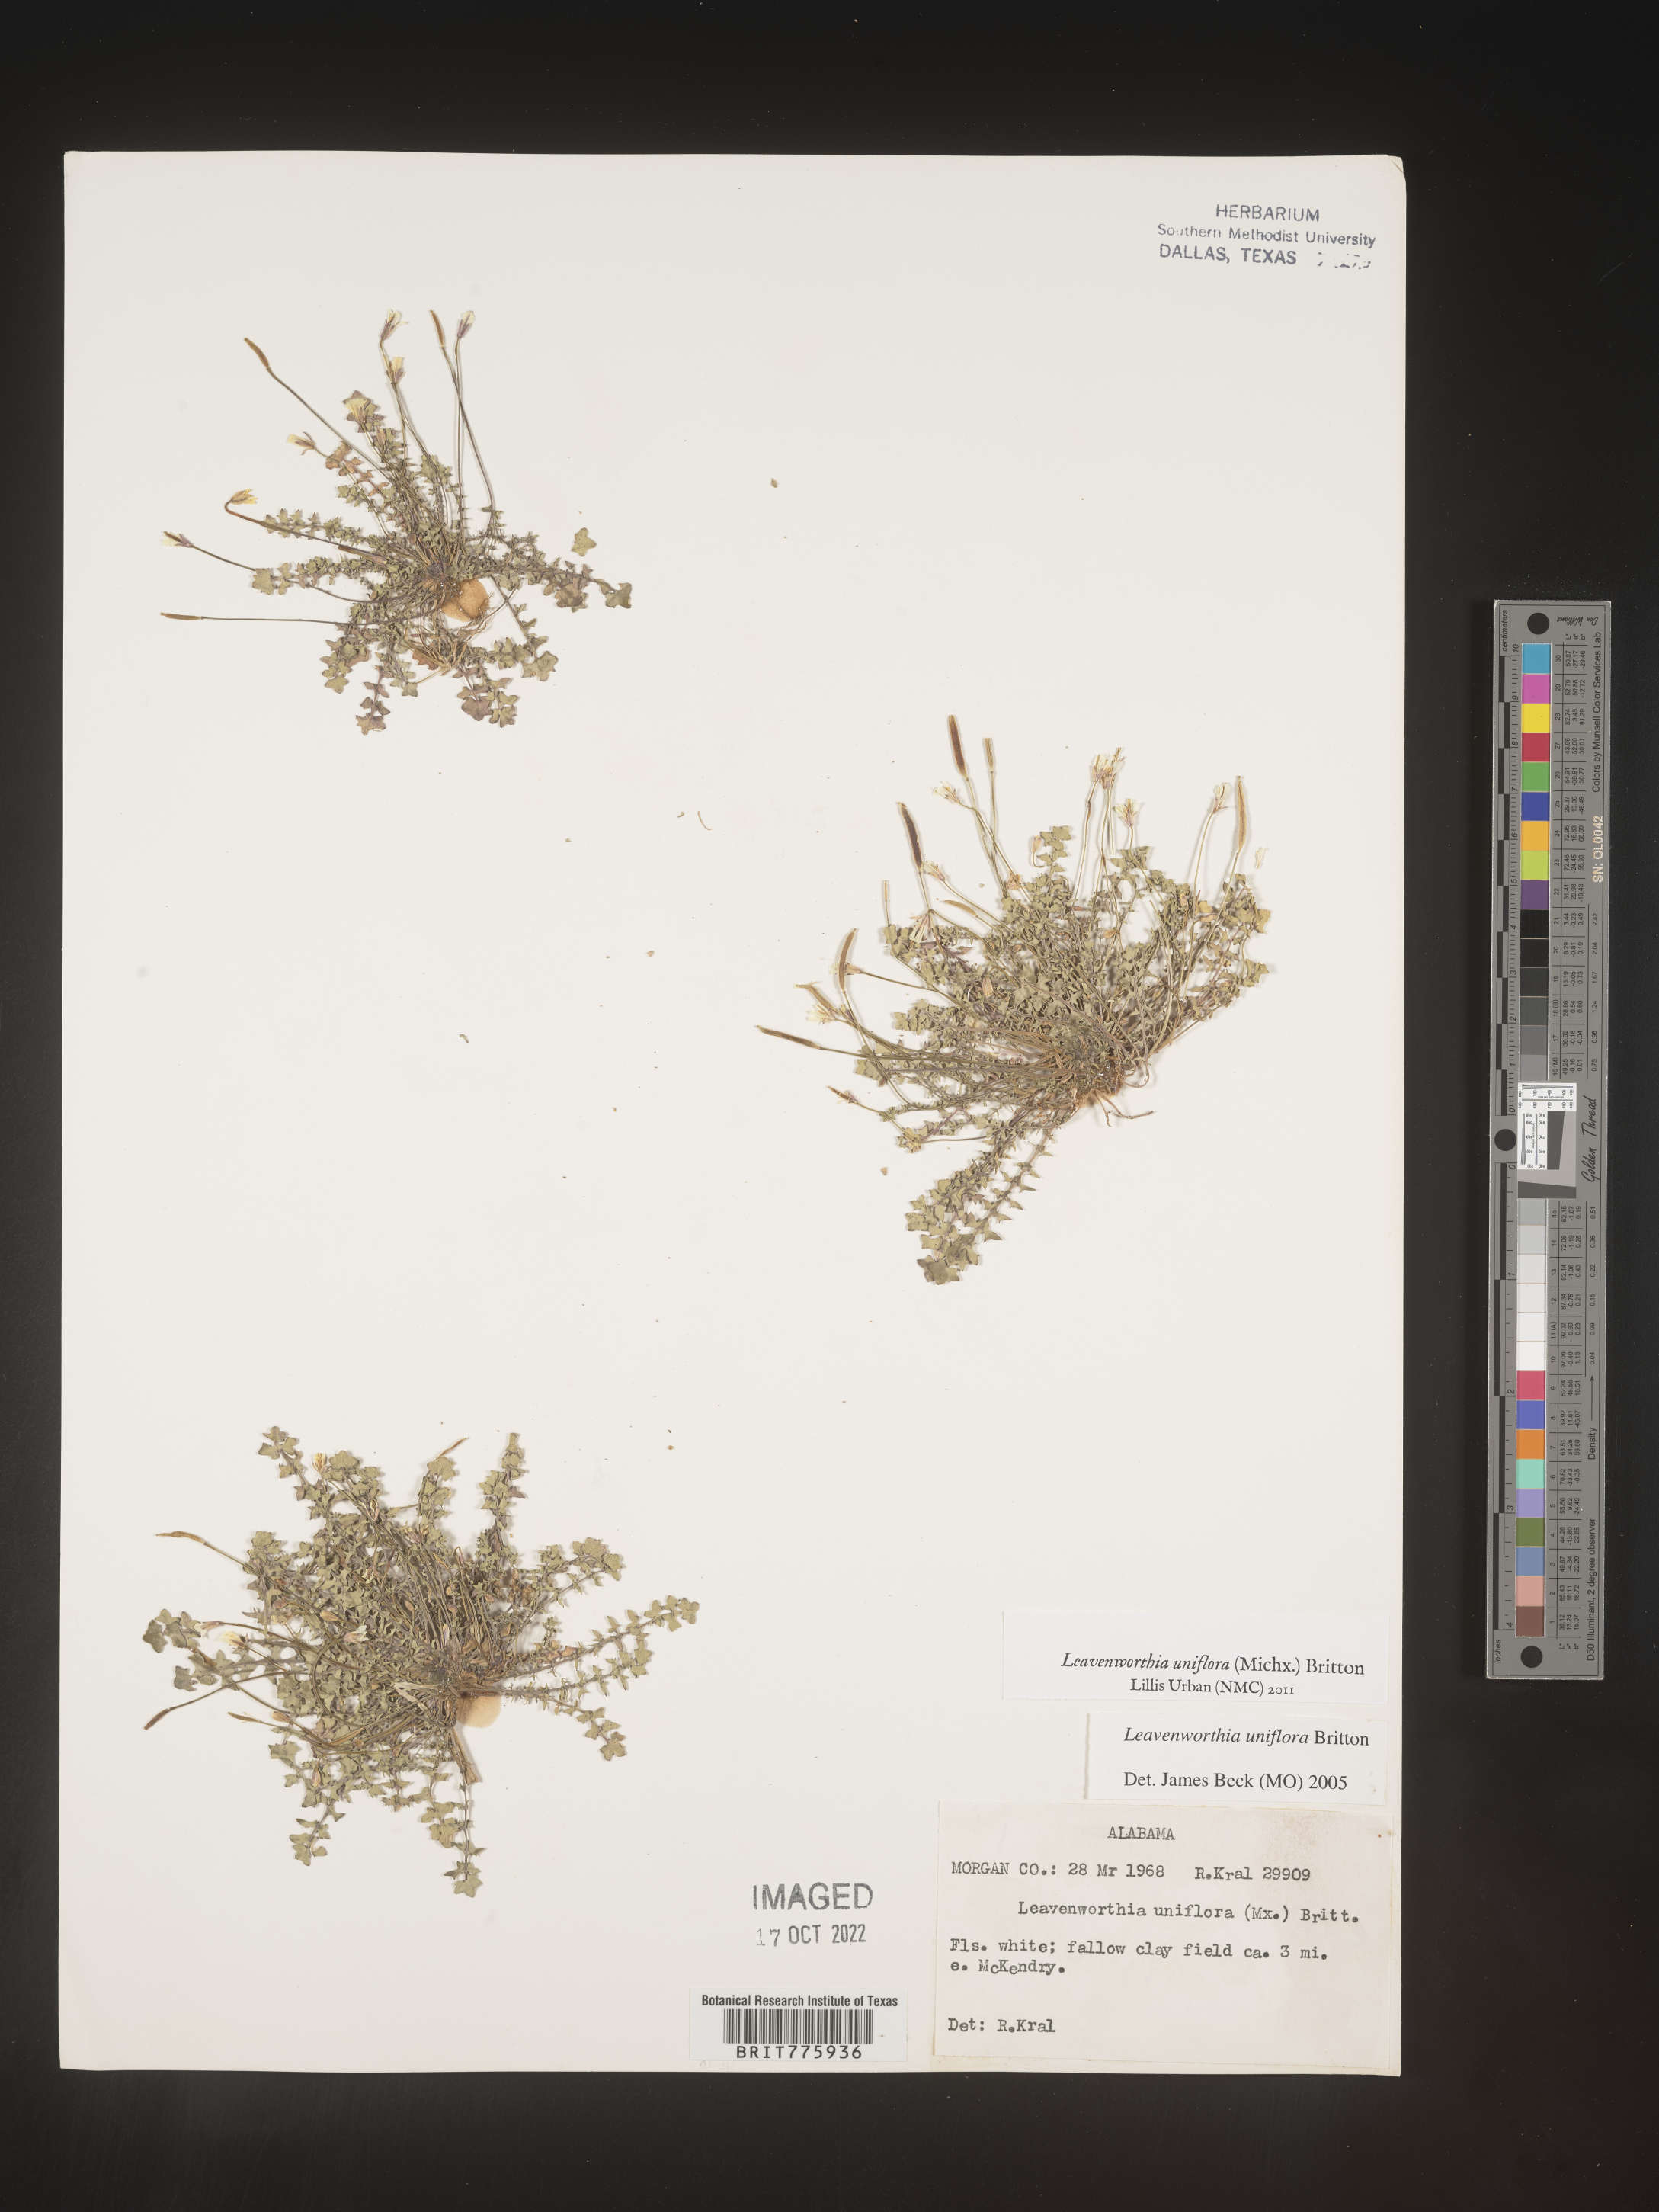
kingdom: Plantae
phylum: Tracheophyta
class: Magnoliopsida
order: Brassicales
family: Brassicaceae
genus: Leavenworthia
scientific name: Leavenworthia
